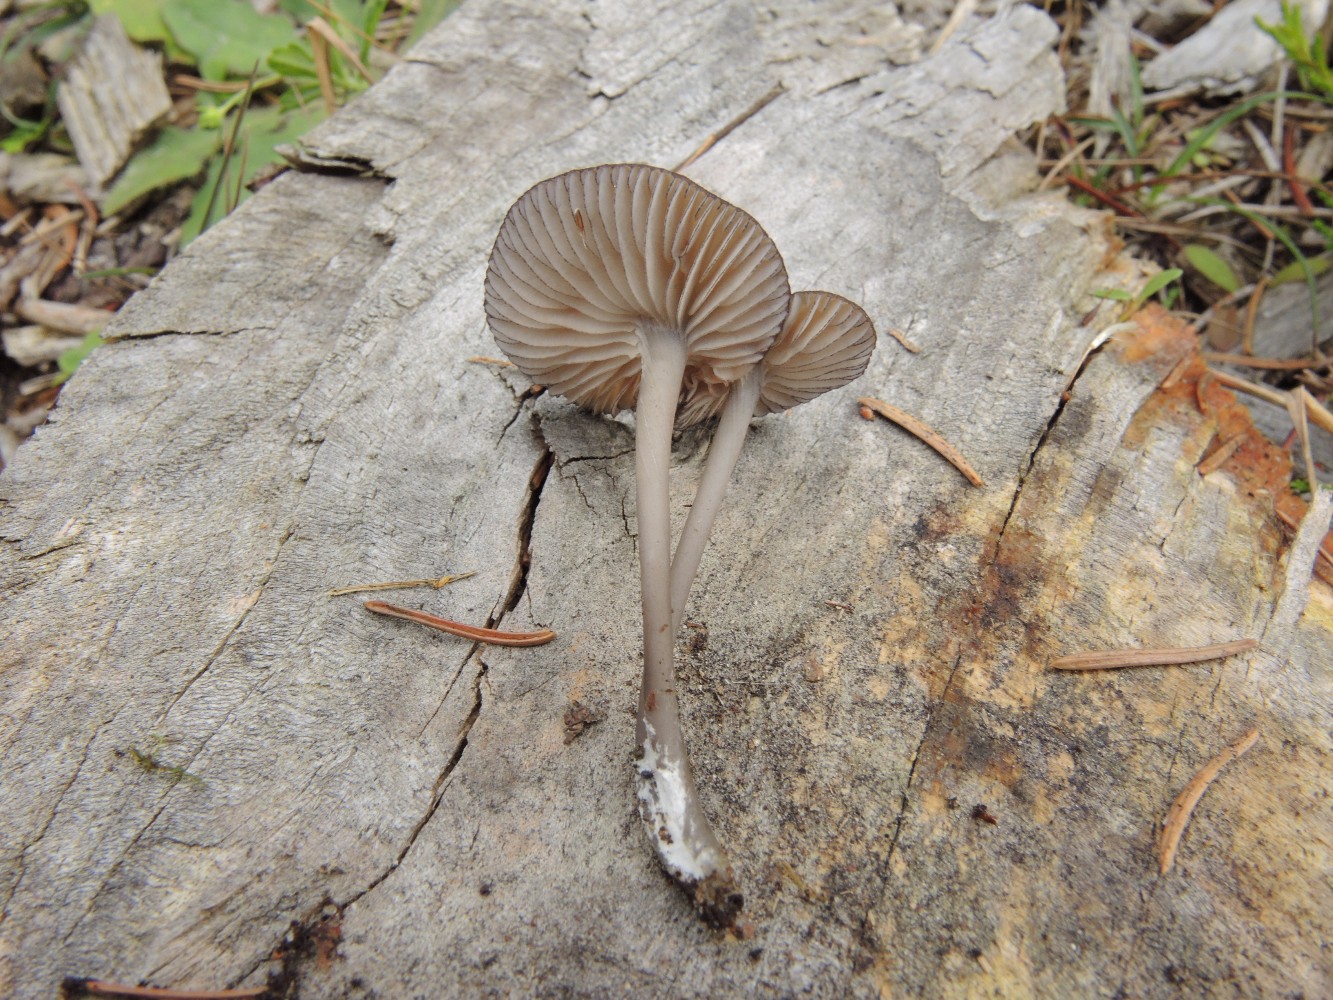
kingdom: Fungi
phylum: Basidiomycota
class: Agaricomycetes
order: Agaricales
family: Entolomataceae
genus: Entoloma
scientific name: Entoloma
